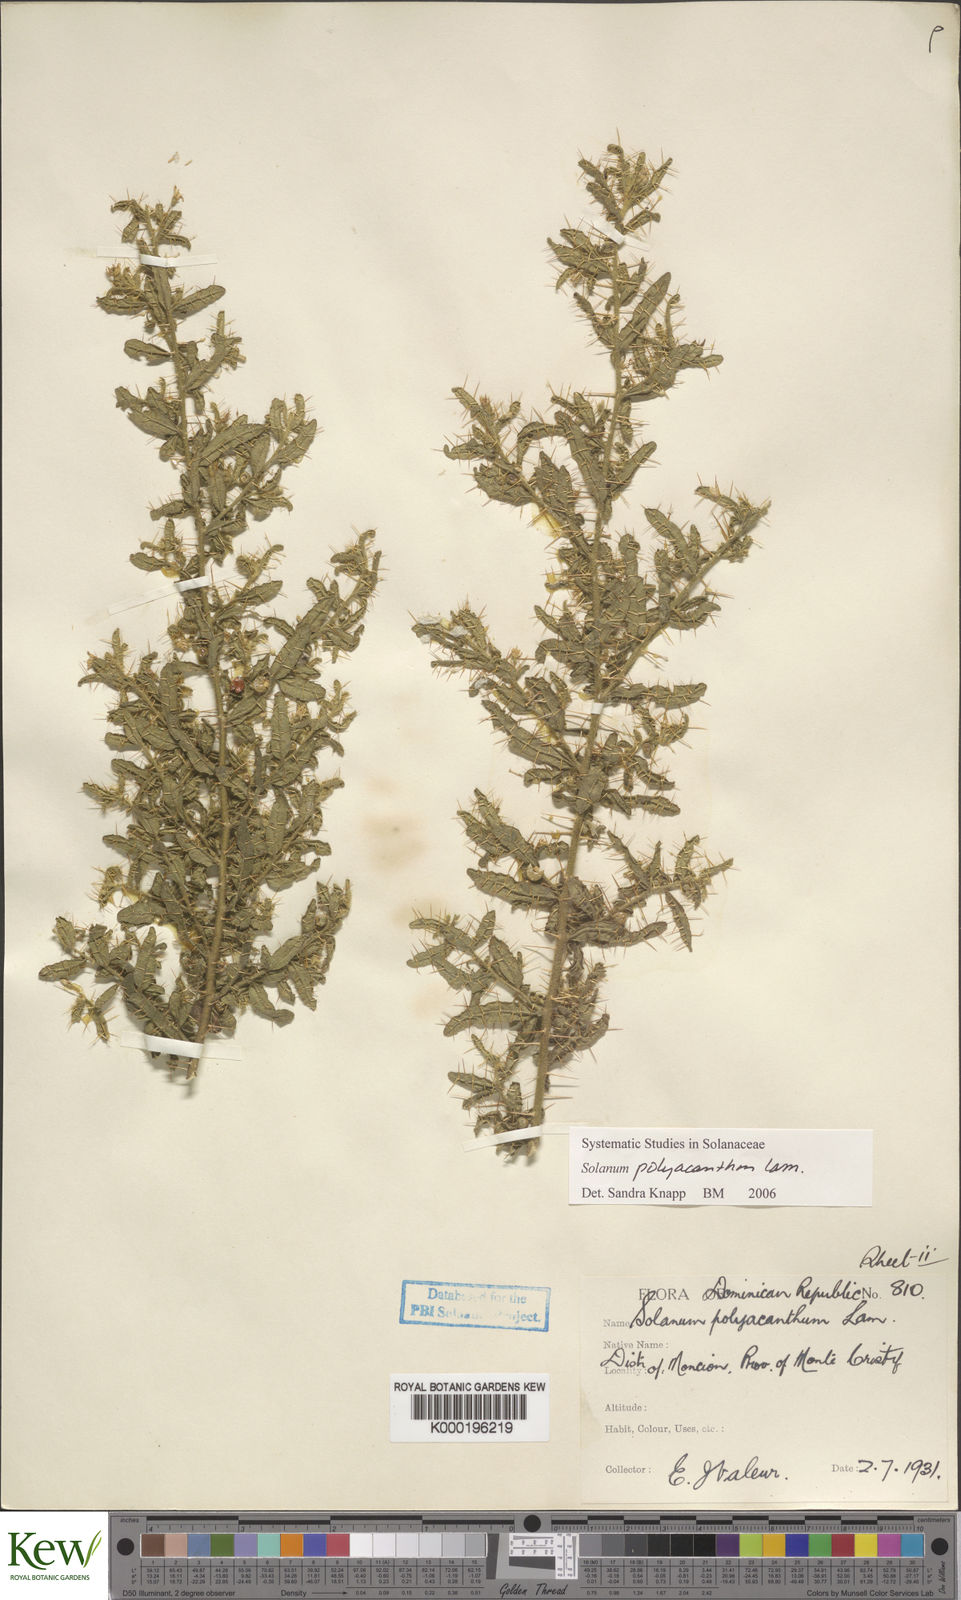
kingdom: Plantae
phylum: Tracheophyta
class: Magnoliopsida
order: Solanales
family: Solanaceae
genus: Solanum
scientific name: Solanum polyacanthos
